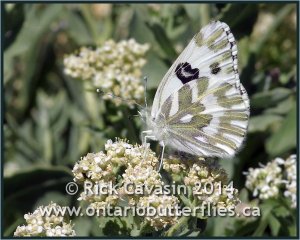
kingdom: Animalia
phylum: Arthropoda
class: Insecta
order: Lepidoptera
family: Pieridae
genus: Pontia
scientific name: Pontia beckerii
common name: Becker's White
